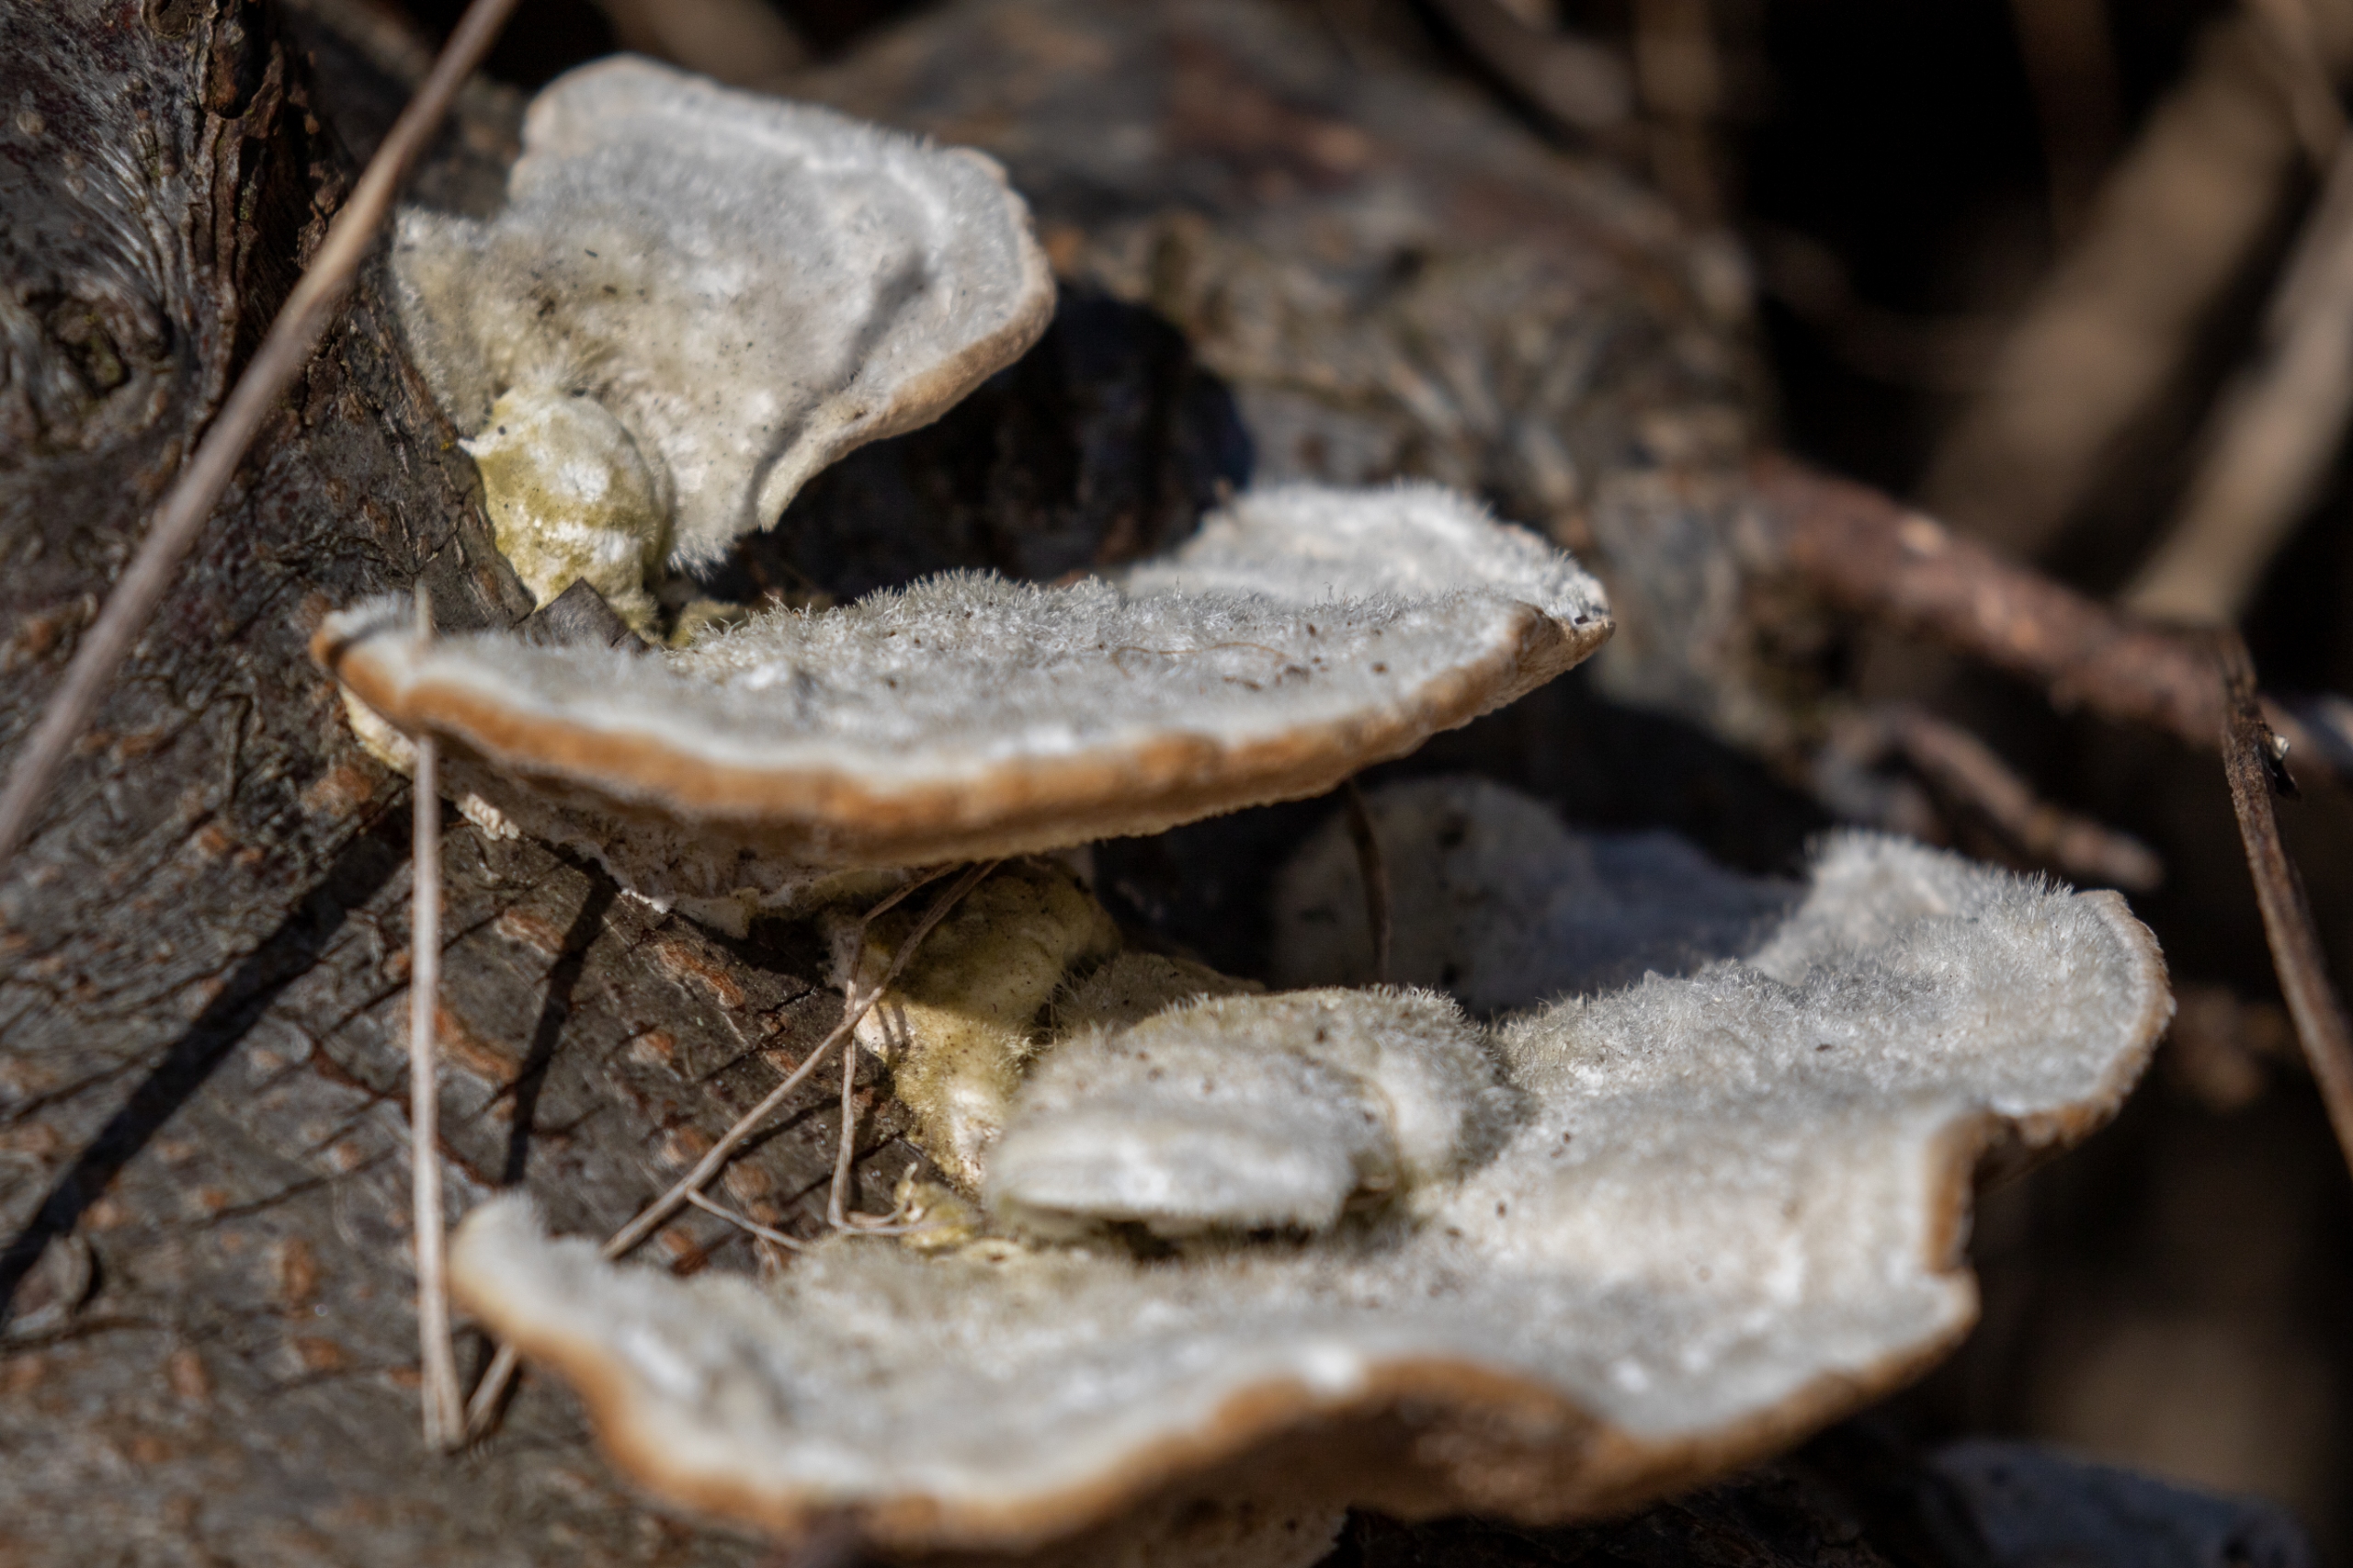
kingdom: Fungi
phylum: Basidiomycota
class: Agaricomycetes
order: Polyporales
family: Polyporaceae
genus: Trametes
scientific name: Trametes hirsuta
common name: Håret læderporesvamp
